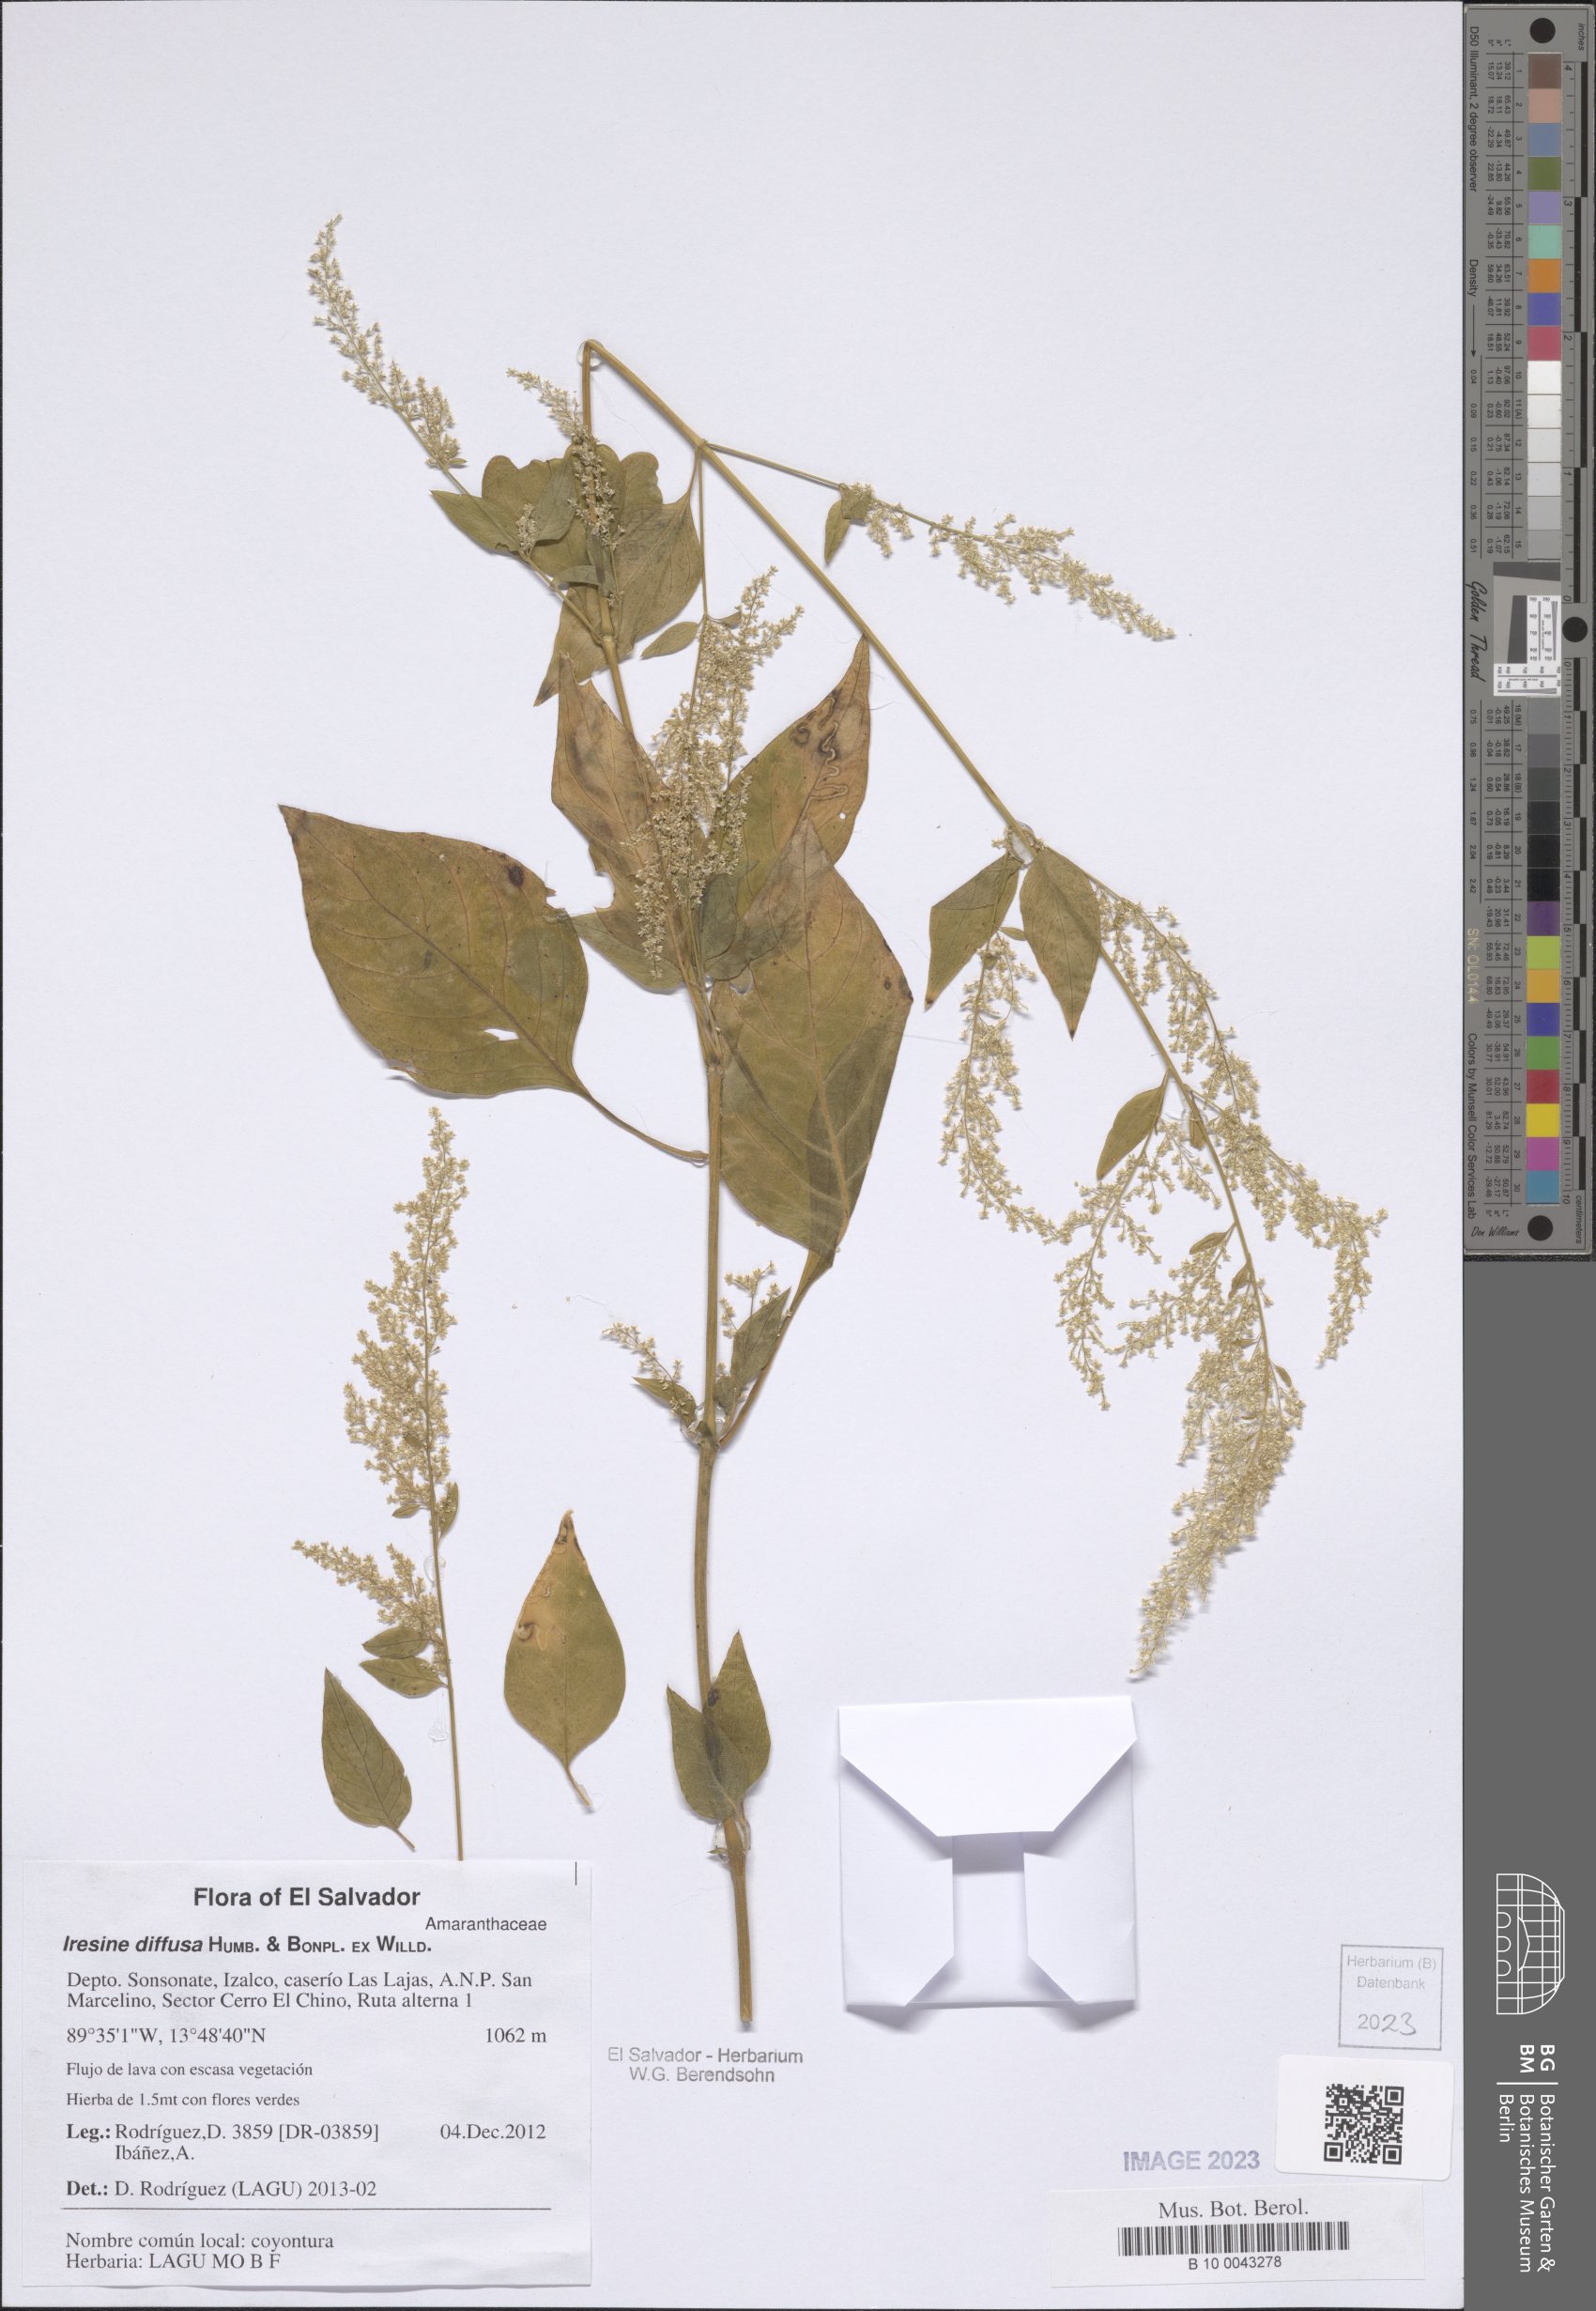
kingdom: Plantae
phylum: Tracheophyta
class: Magnoliopsida
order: Caryophyllales
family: Amaranthaceae
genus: Iresine
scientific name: Iresine diffusa
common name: Juba's-bush
